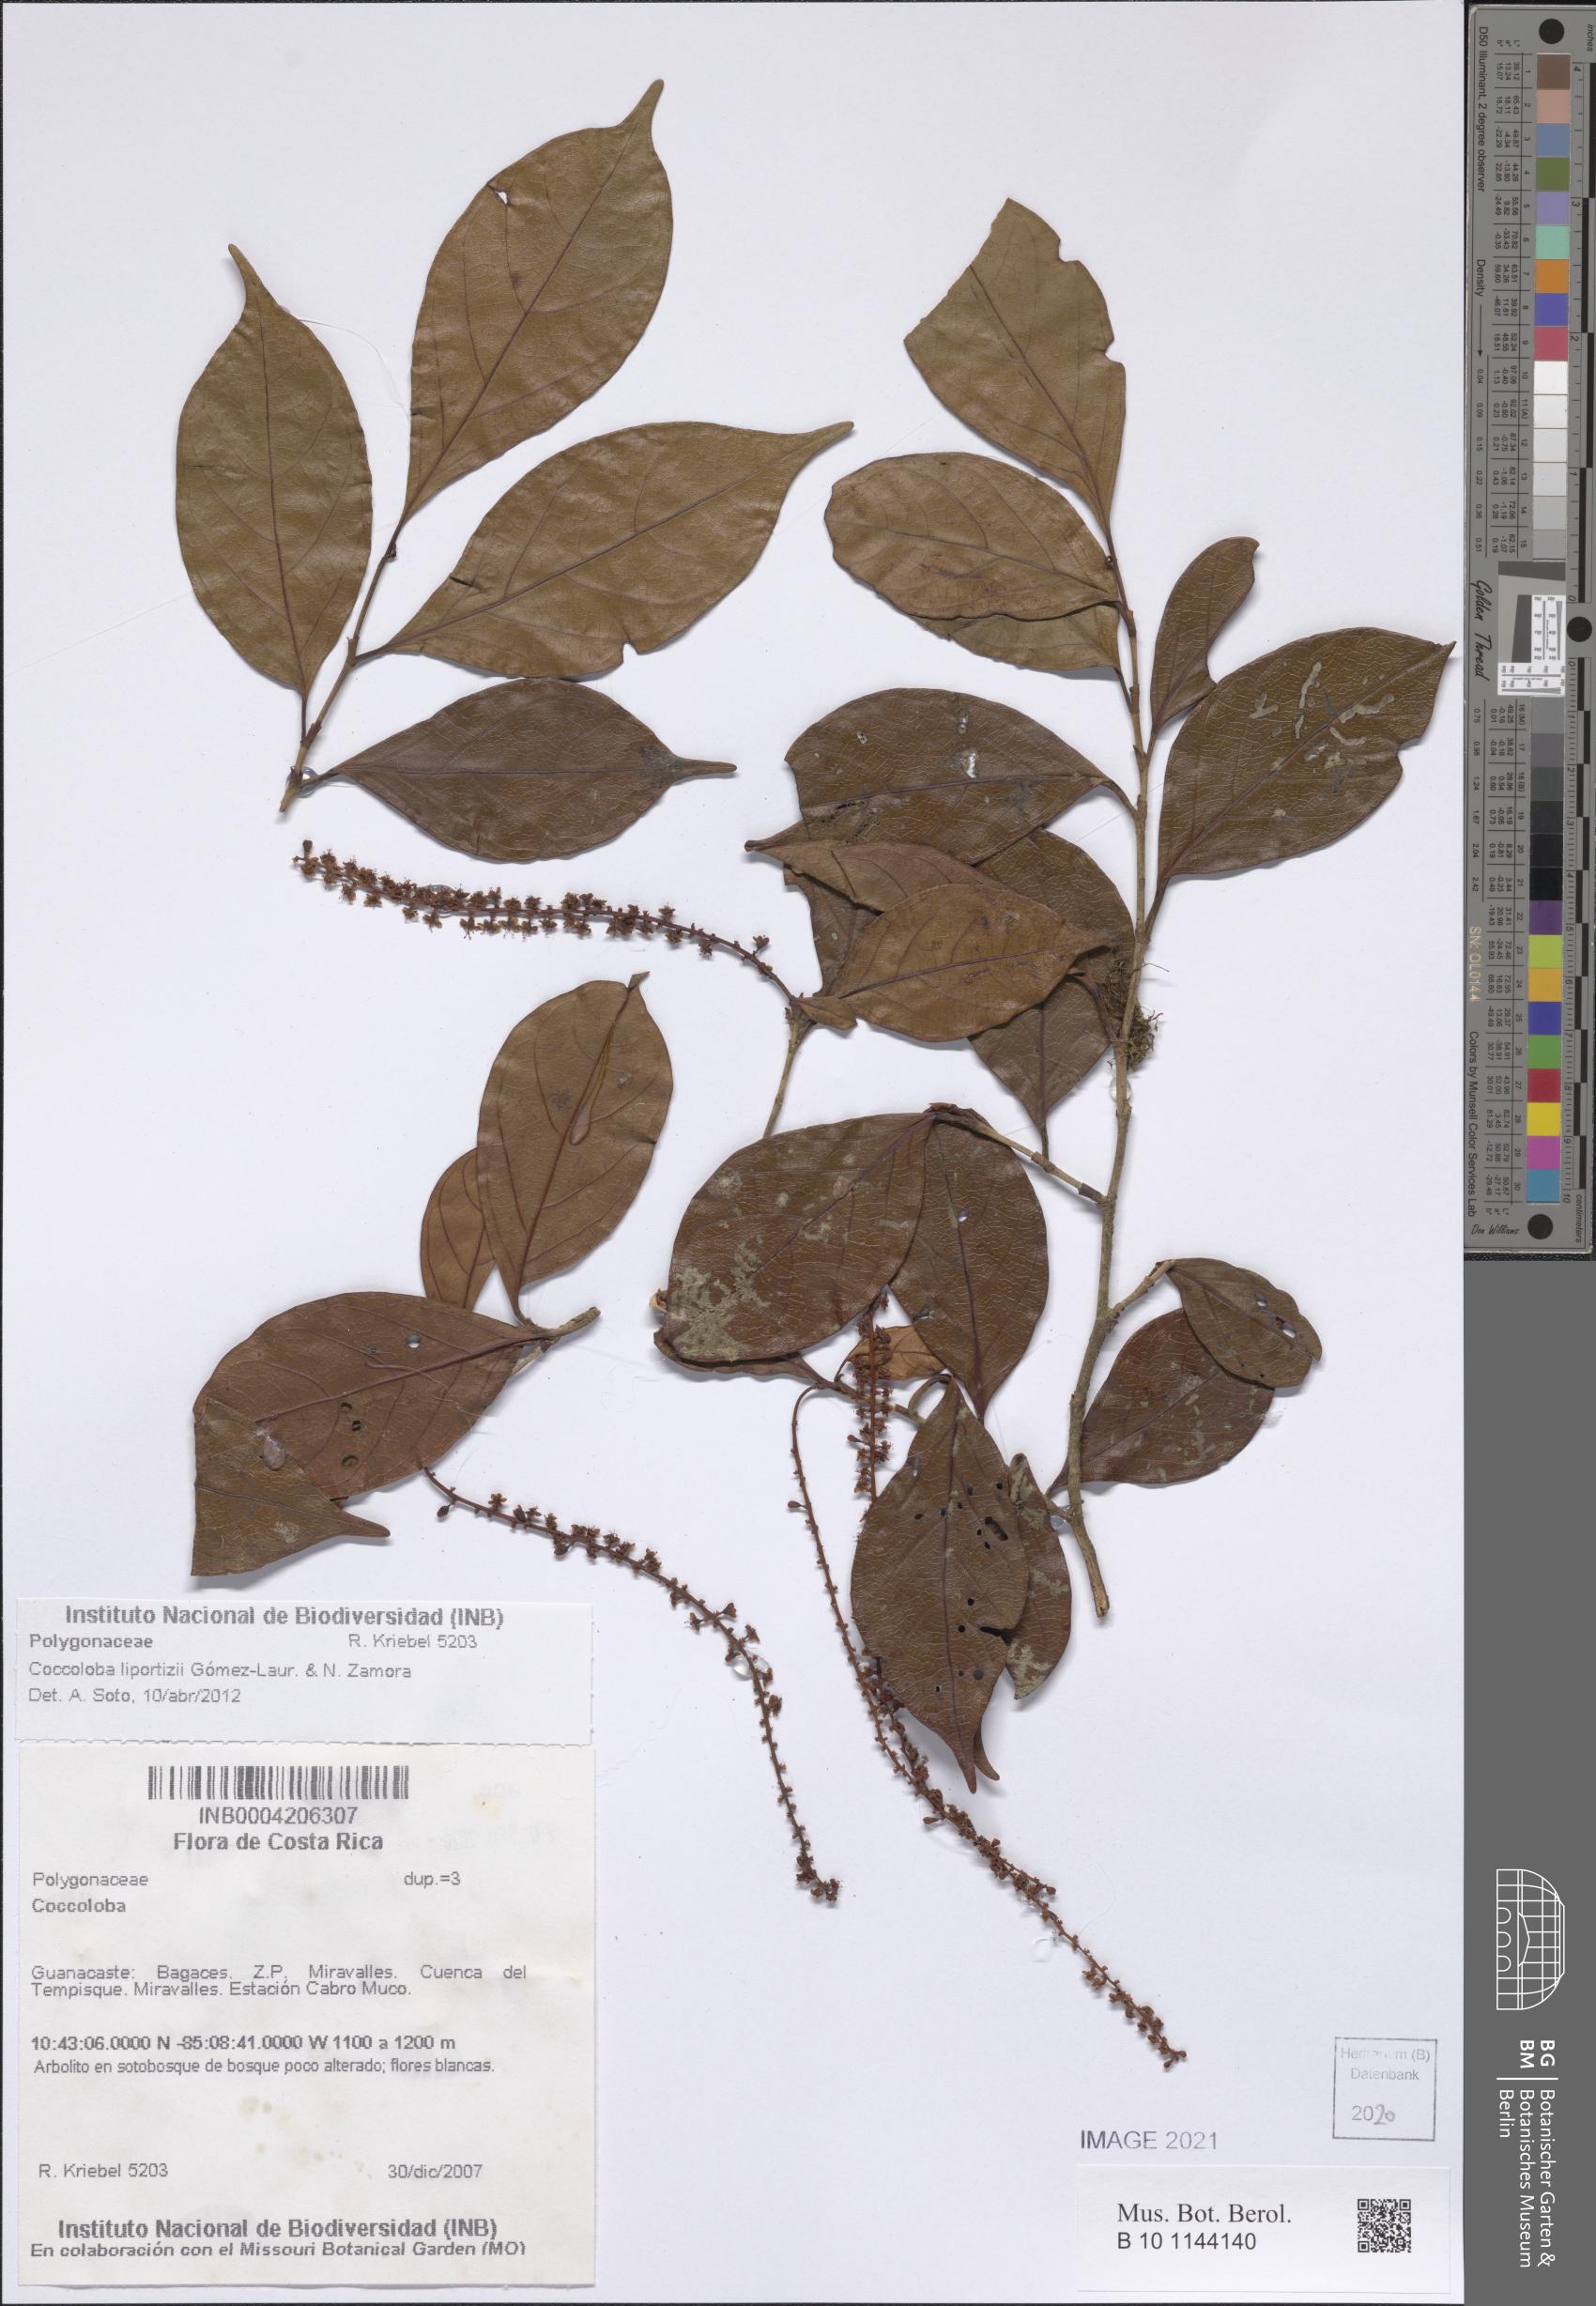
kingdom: Plantae
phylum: Tracheophyta
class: Magnoliopsida
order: Caryophyllales
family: Polygonaceae
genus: Coccoloba
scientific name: Coccoloba liportizii
